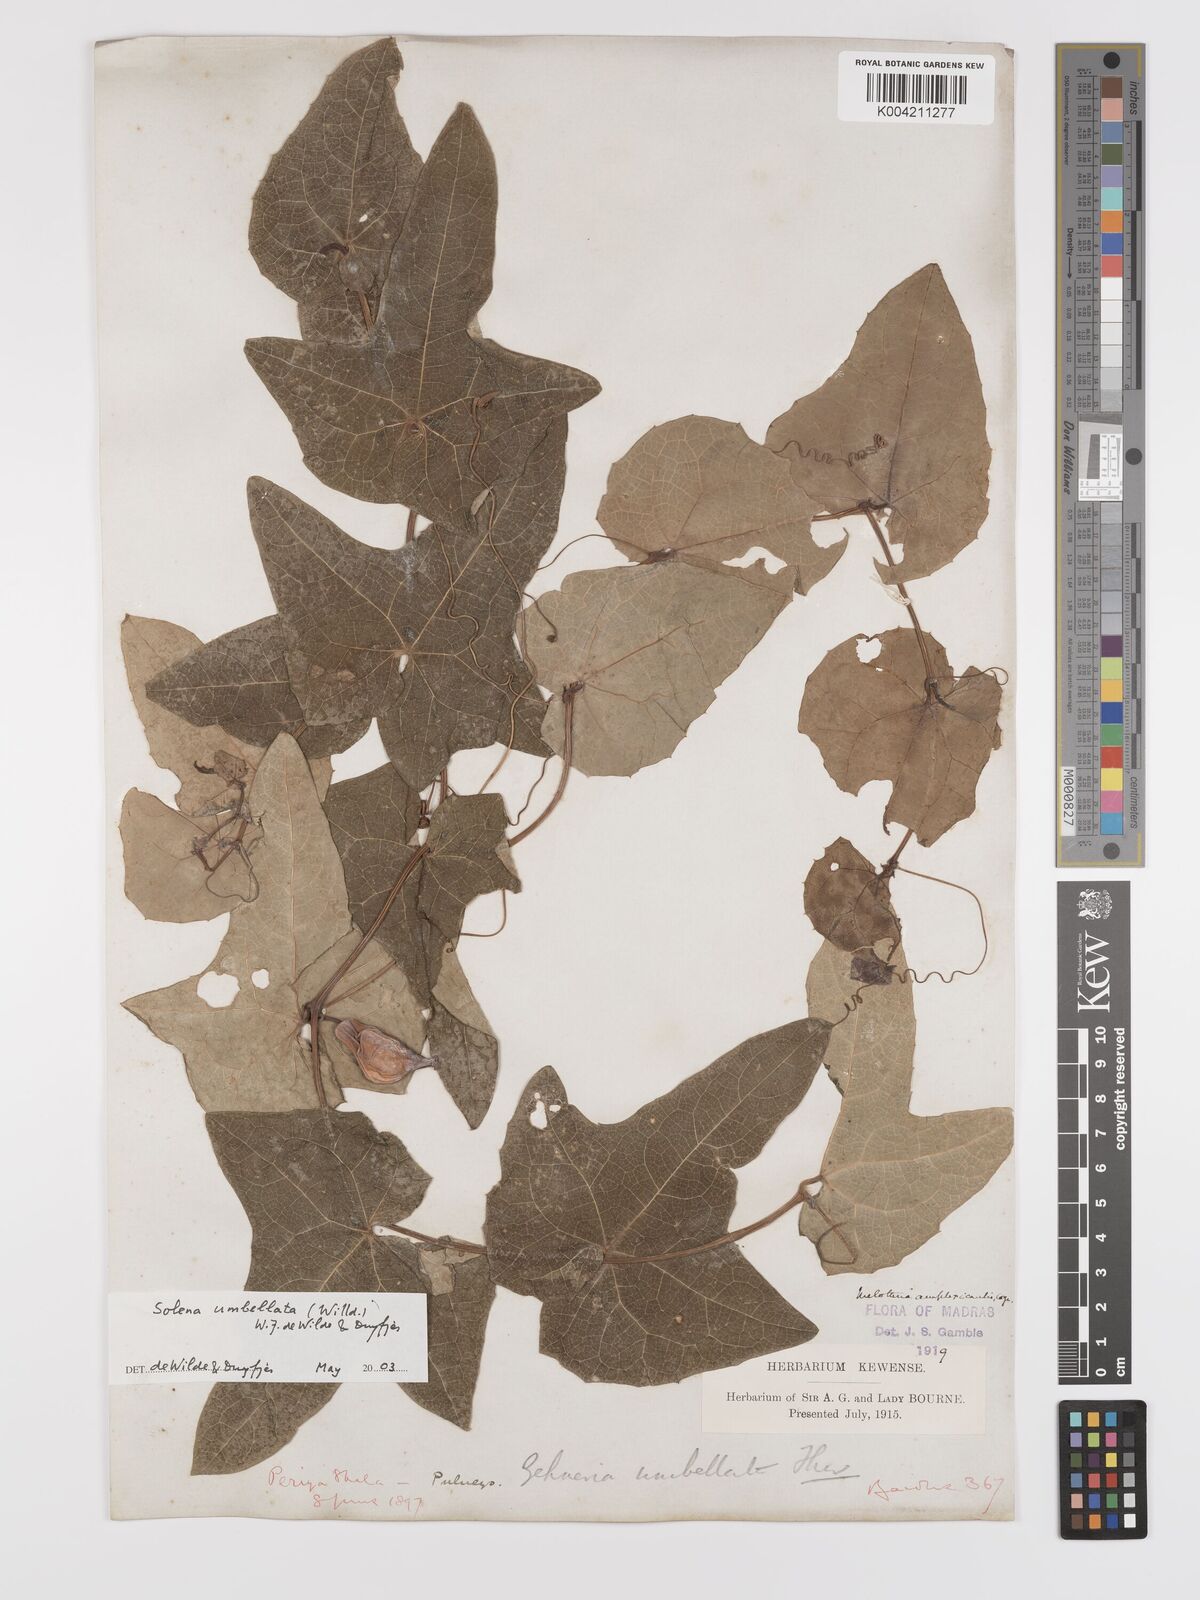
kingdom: Plantae
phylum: Tracheophyta
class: Magnoliopsida
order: Cucurbitales
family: Cucurbitaceae
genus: Solena
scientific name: Solena amplexicaulis
